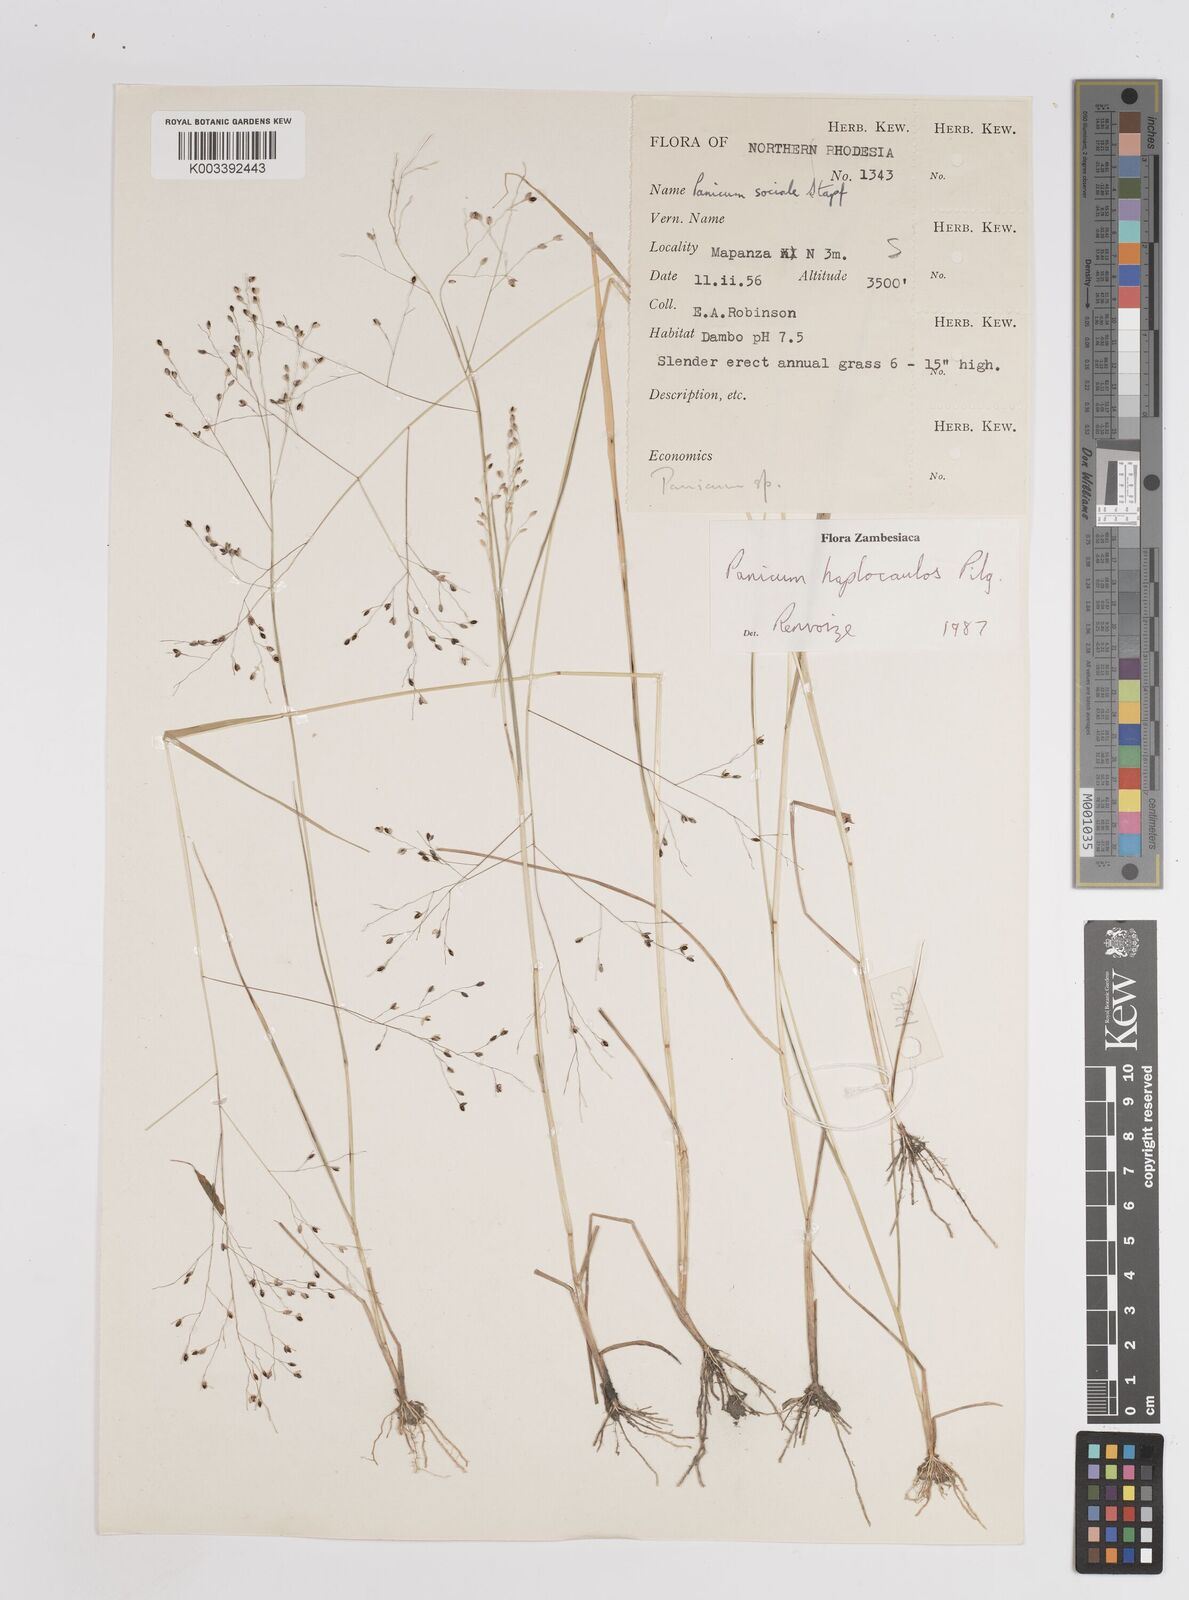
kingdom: Plantae
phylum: Tracheophyta
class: Liliopsida
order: Poales
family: Poaceae
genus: Panicum
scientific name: Panicum haplocaulos
